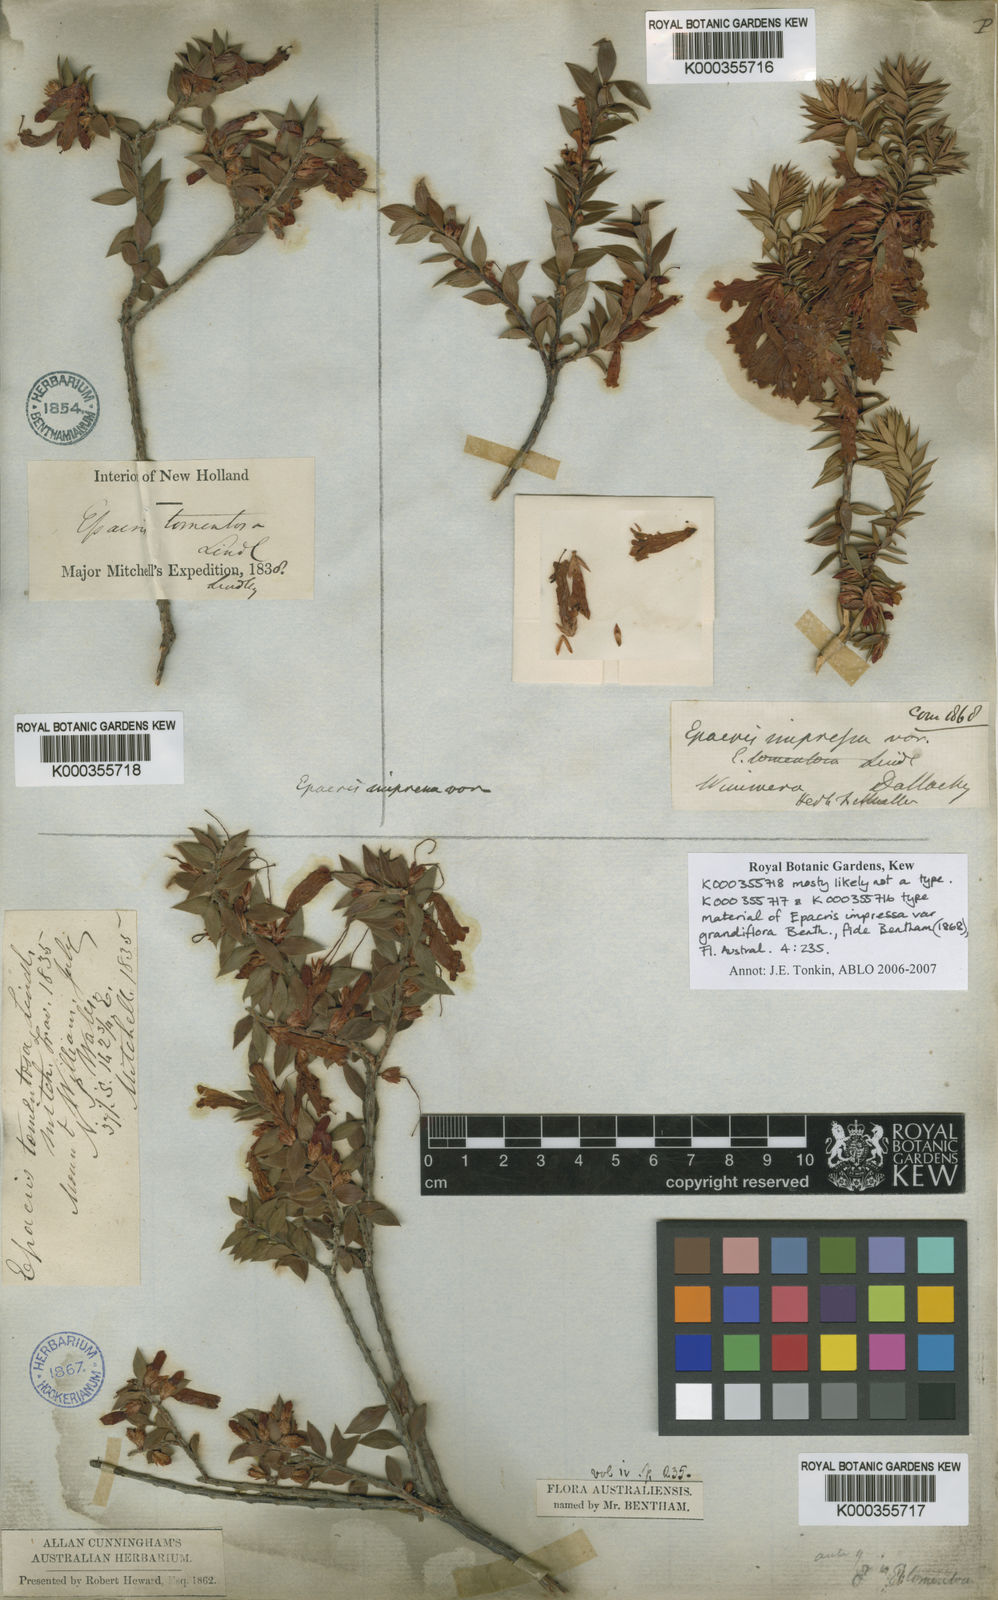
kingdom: Plantae
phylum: Tracheophyta
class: Magnoliopsida
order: Ericales
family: Ericaceae
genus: Epacris
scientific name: Epacris impressa
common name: Common-heath
